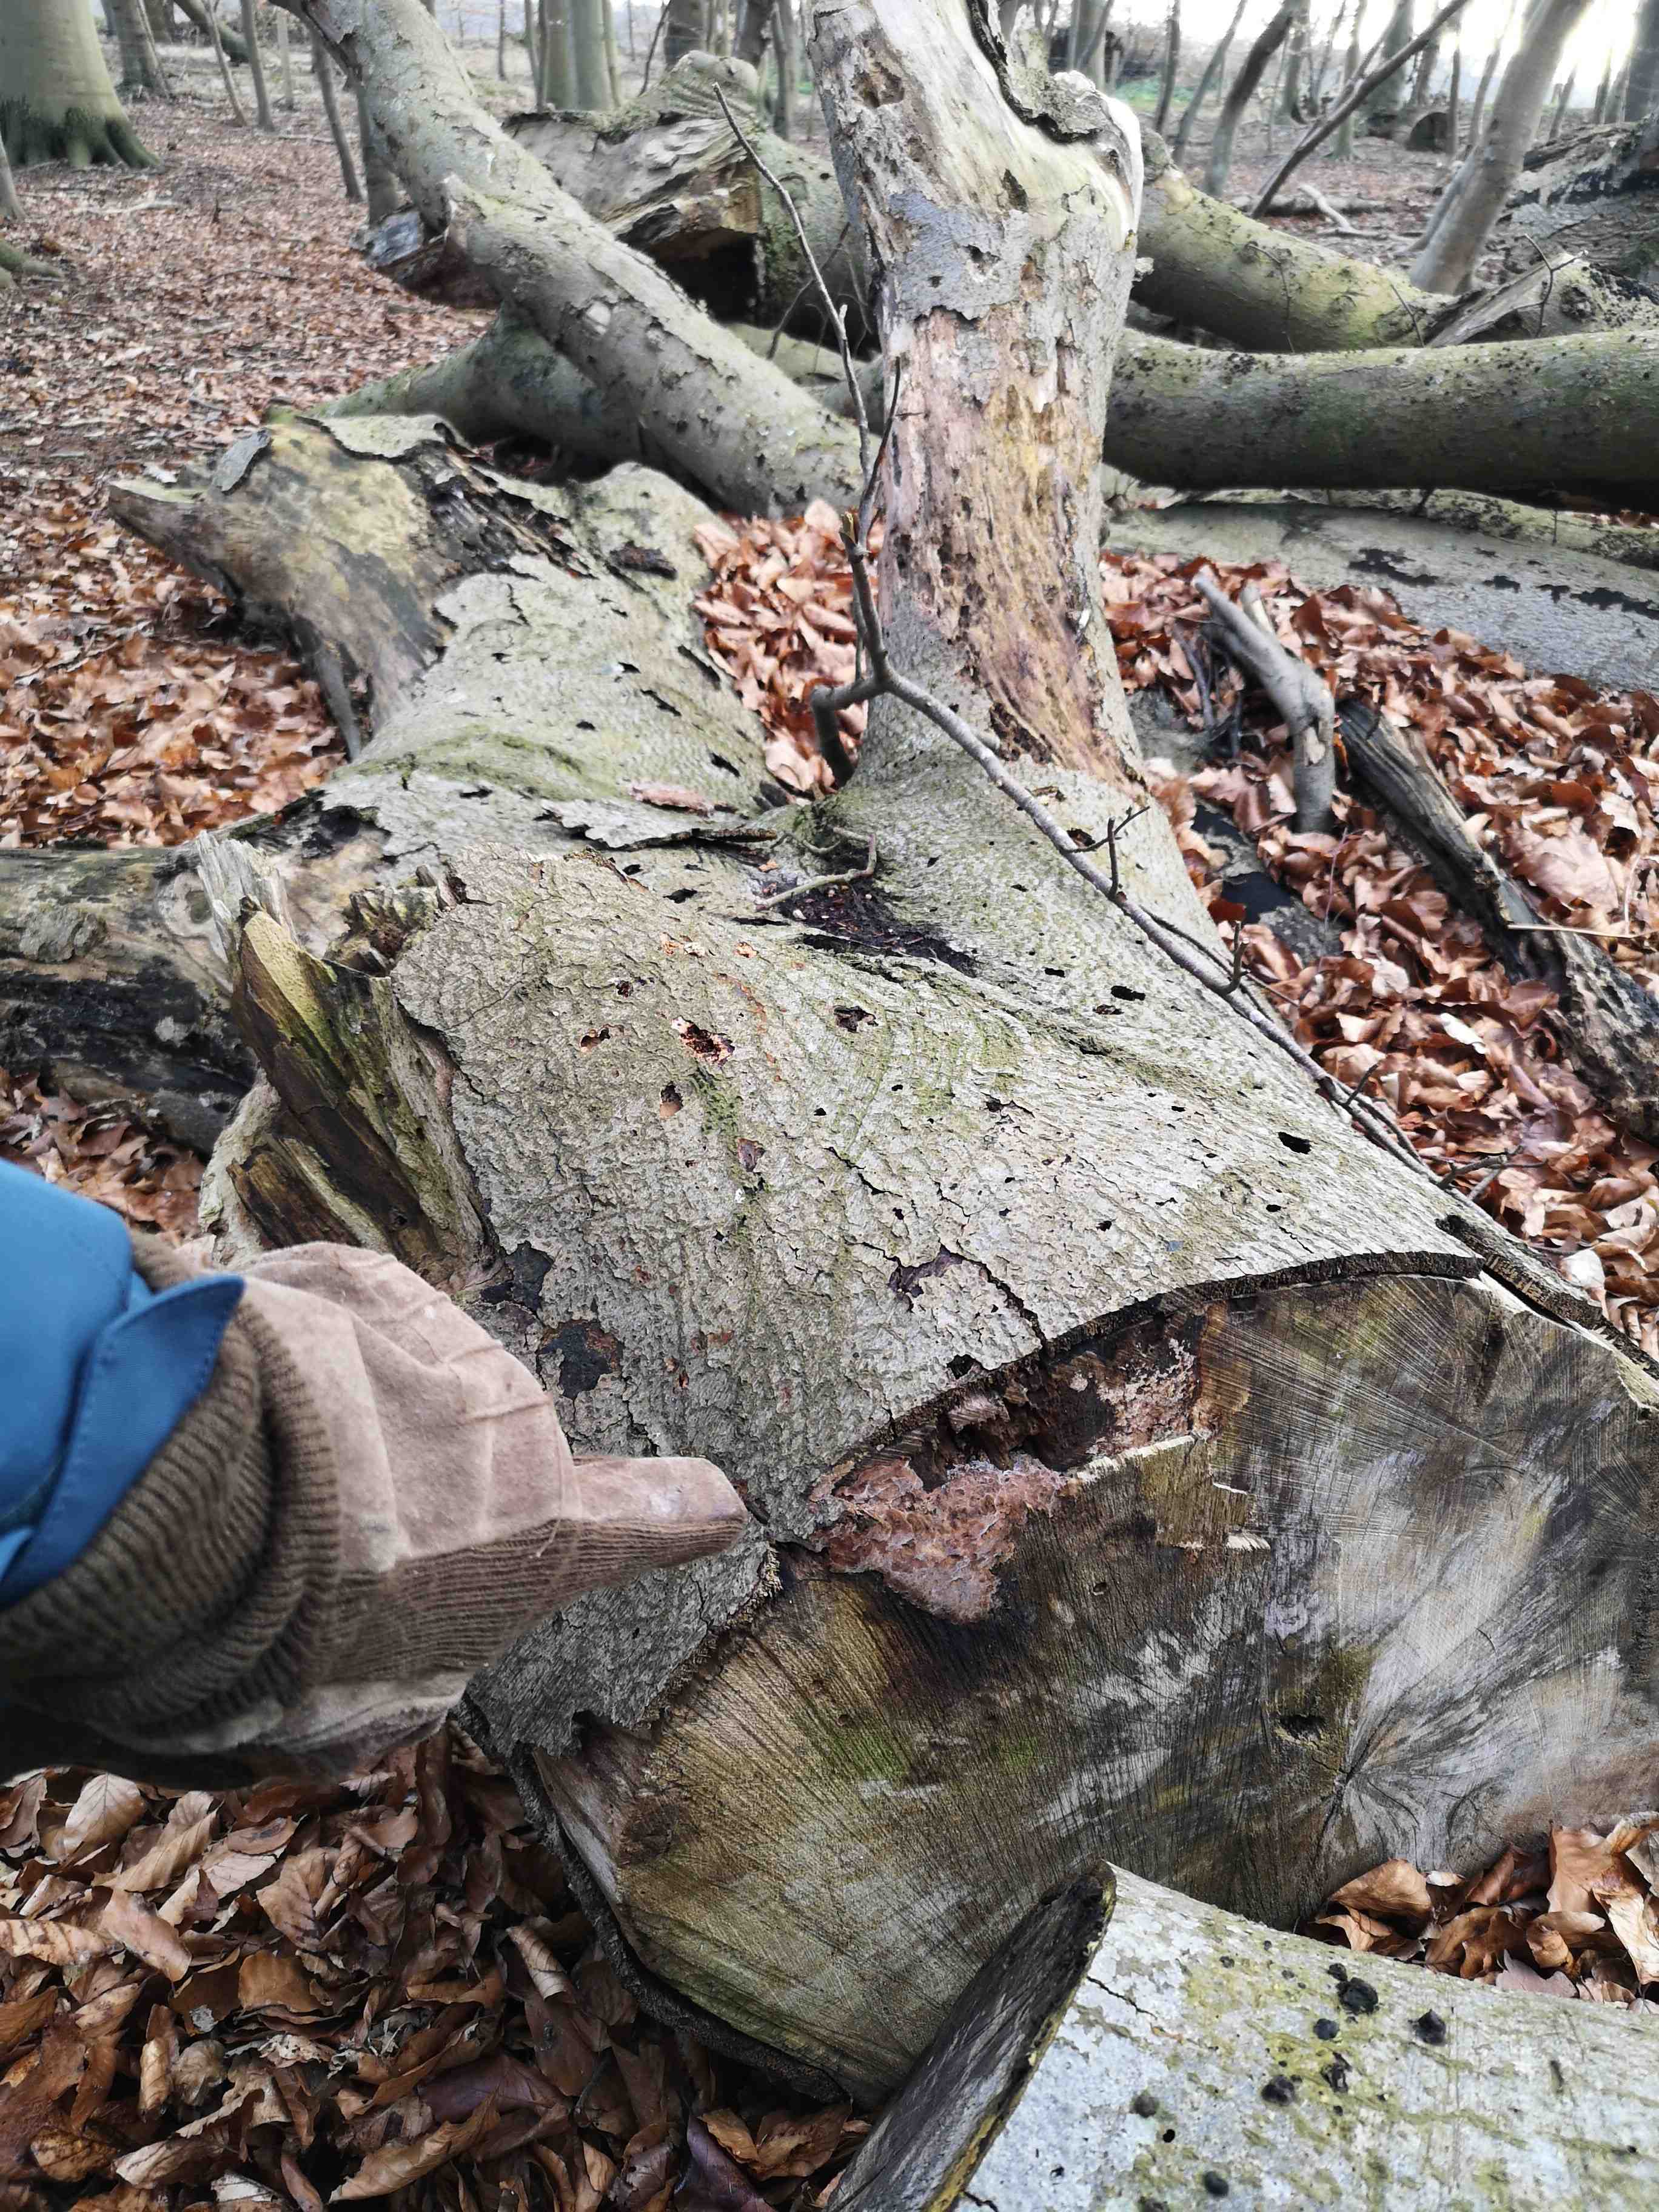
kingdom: Fungi
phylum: Basidiomycota
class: Agaricomycetes
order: Polyporales
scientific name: Polyporales
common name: poresvampordenen
